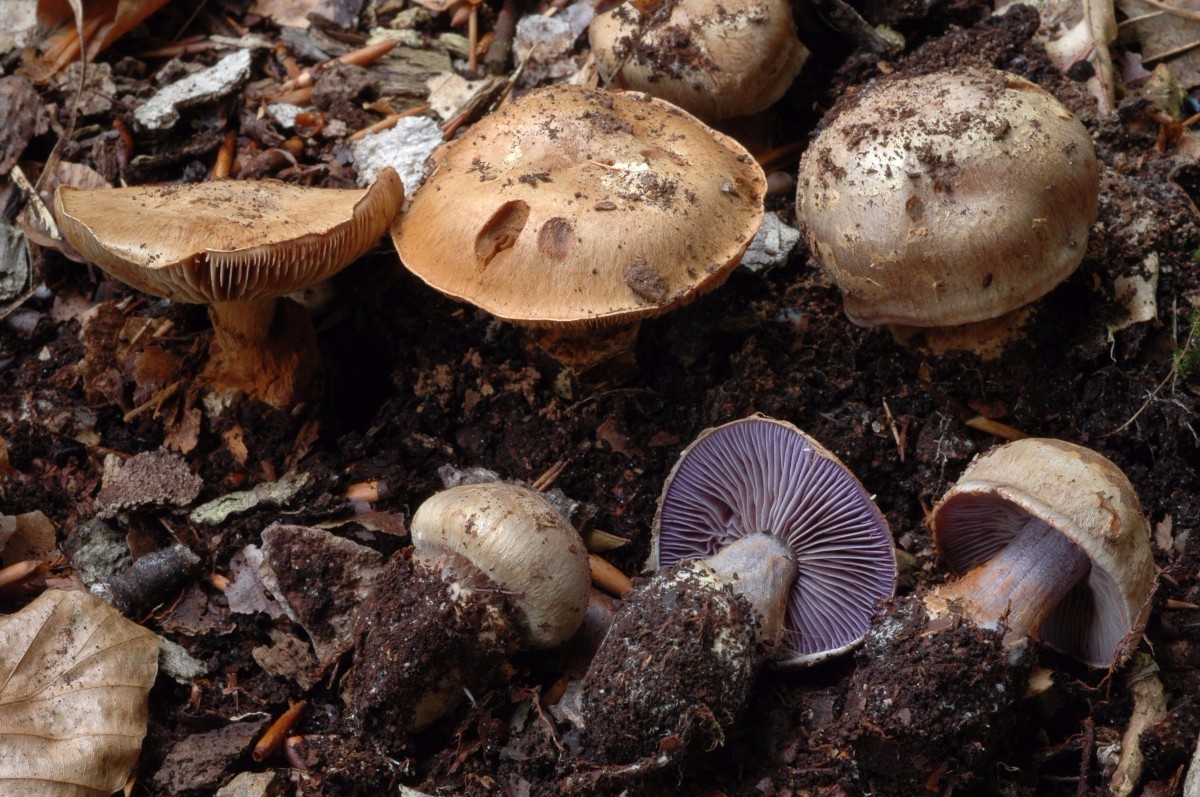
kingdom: Fungi
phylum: Basidiomycota
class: Agaricomycetes
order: Agaricales
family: Cortinariaceae
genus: Phlegmacium
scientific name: Phlegmacium luhmannii
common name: musegrå slørhat
